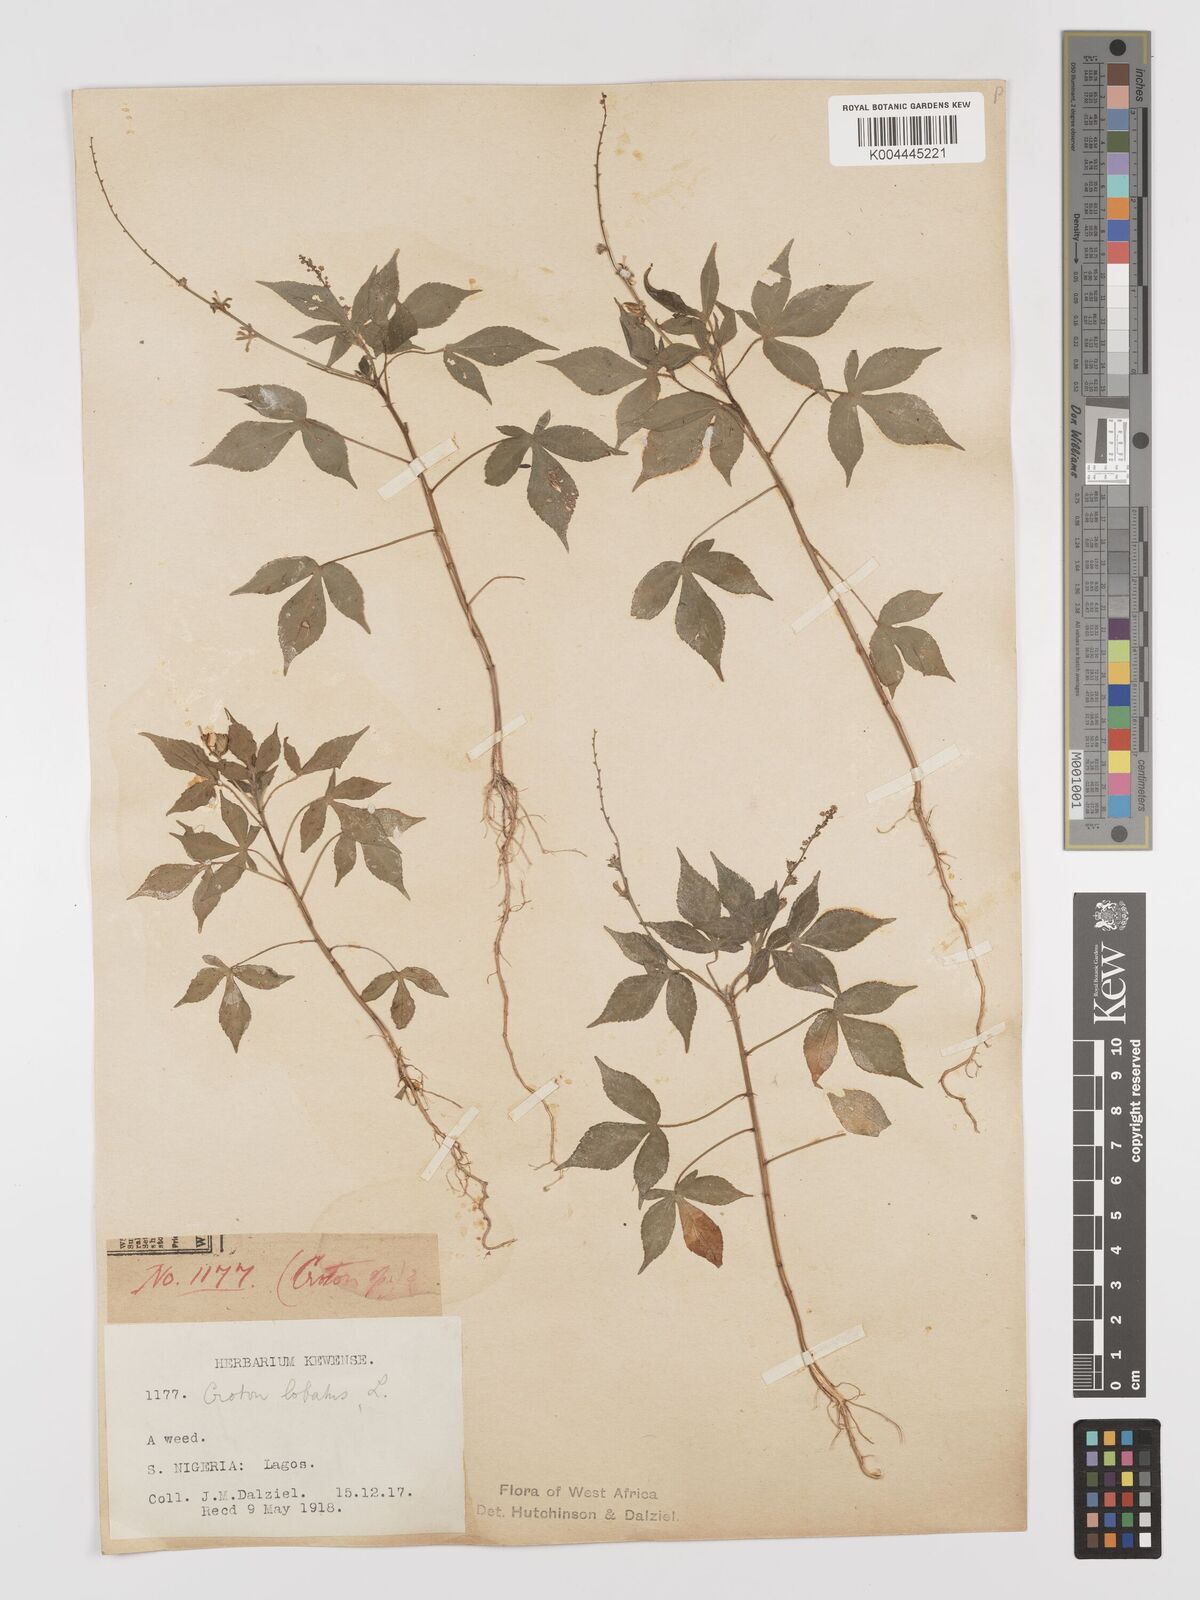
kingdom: Plantae
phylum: Tracheophyta
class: Magnoliopsida
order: Malpighiales
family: Euphorbiaceae
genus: Astraea
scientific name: Astraea lobata
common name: Lobed croton
